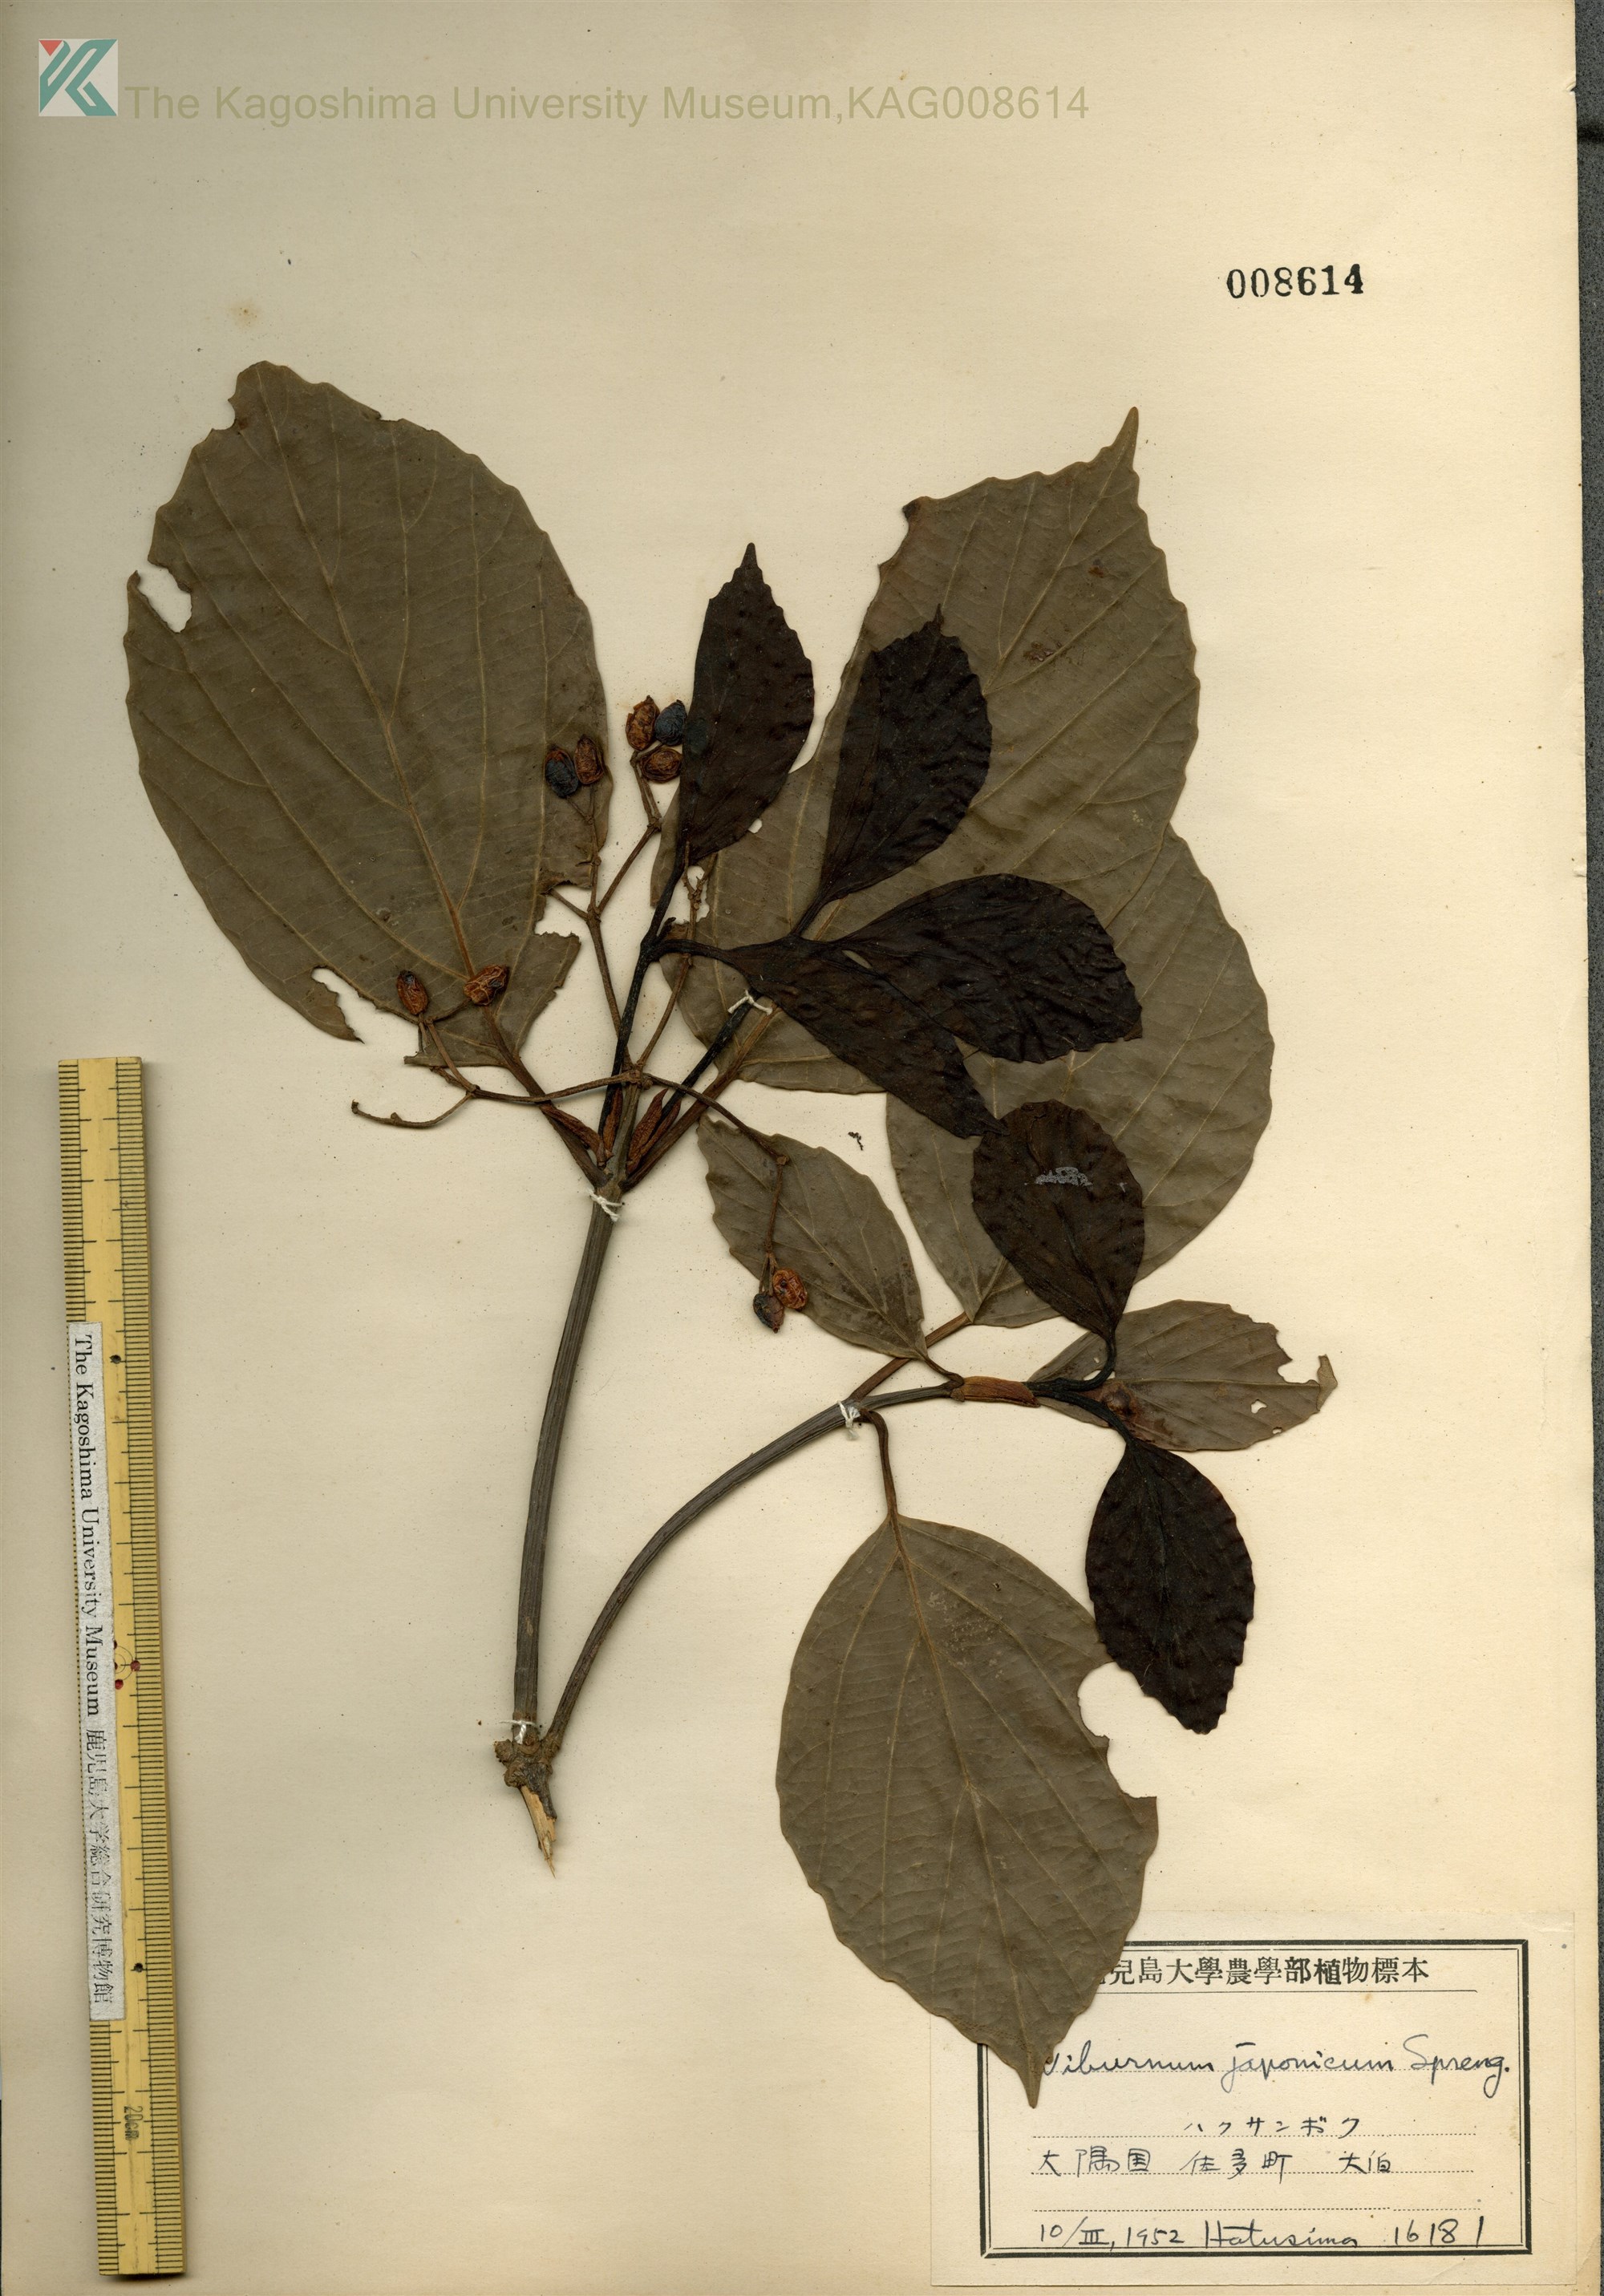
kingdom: Plantae
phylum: Tracheophyta
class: Magnoliopsida
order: Dipsacales
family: Viburnaceae
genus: Viburnum
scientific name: Viburnum japonicum
